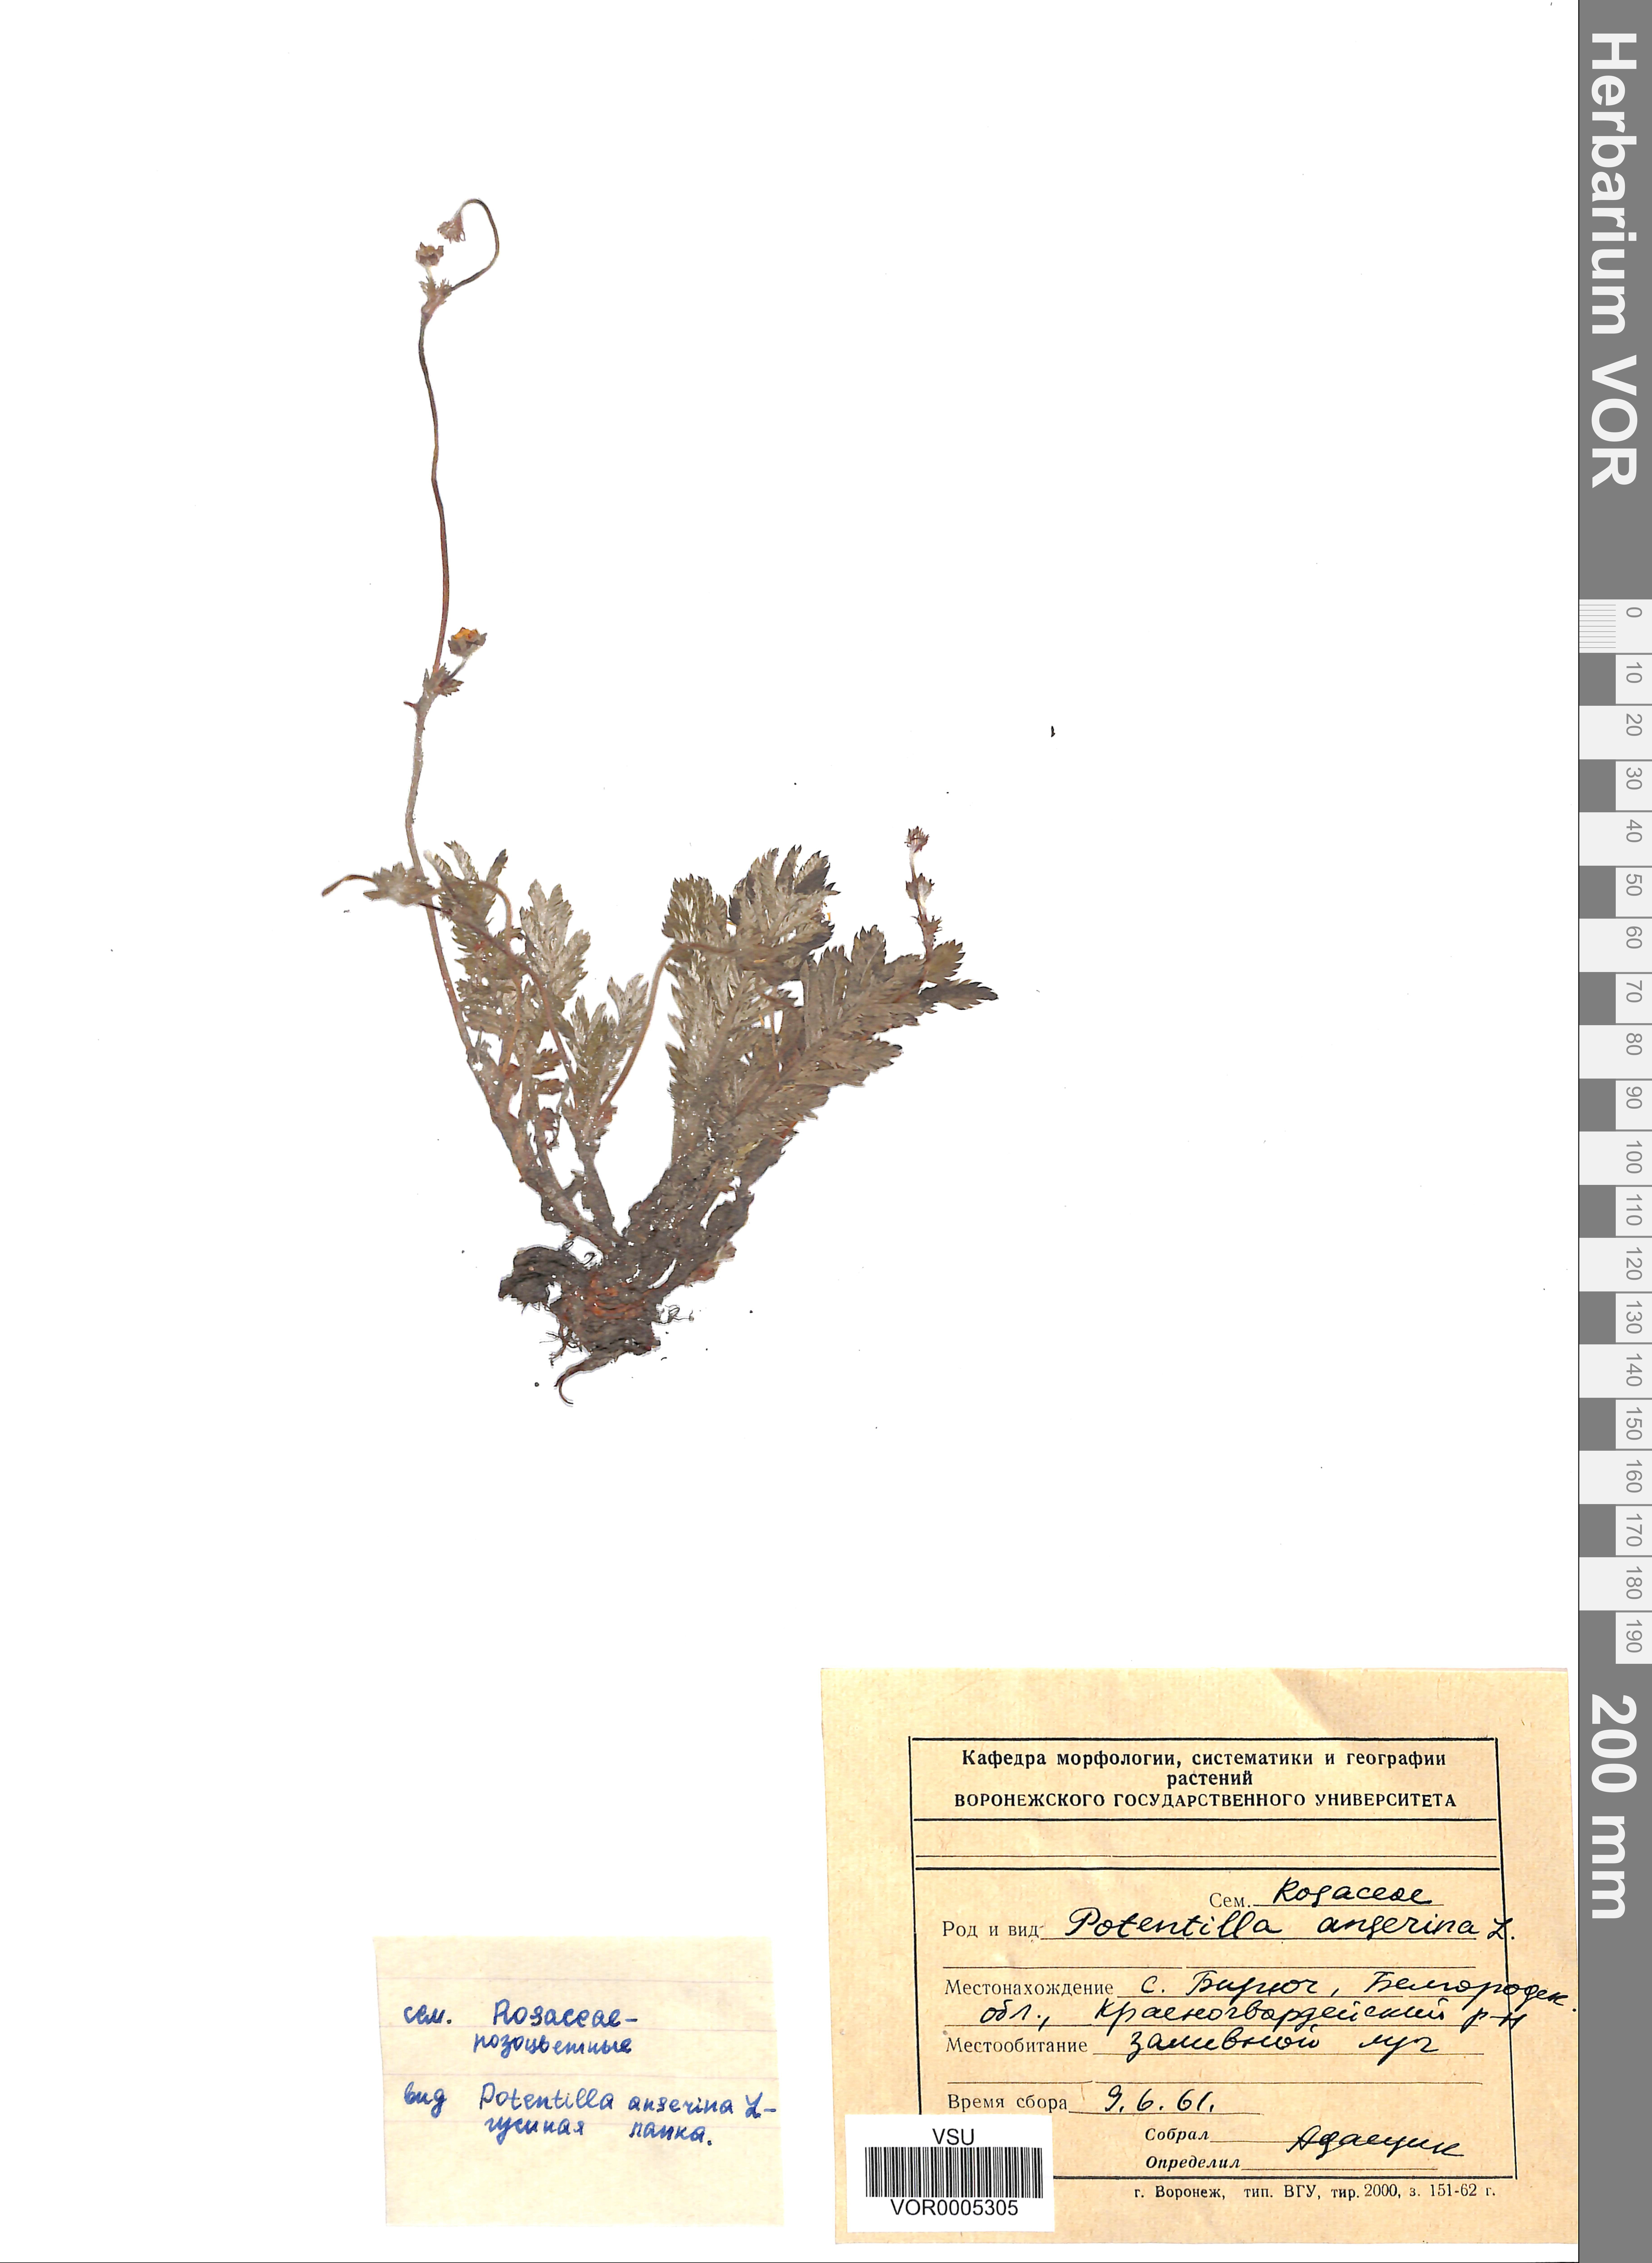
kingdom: Plantae
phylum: Tracheophyta
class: Magnoliopsida
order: Rosales
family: Rosaceae
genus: Argentina
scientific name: Argentina anserina
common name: Common silverweed
